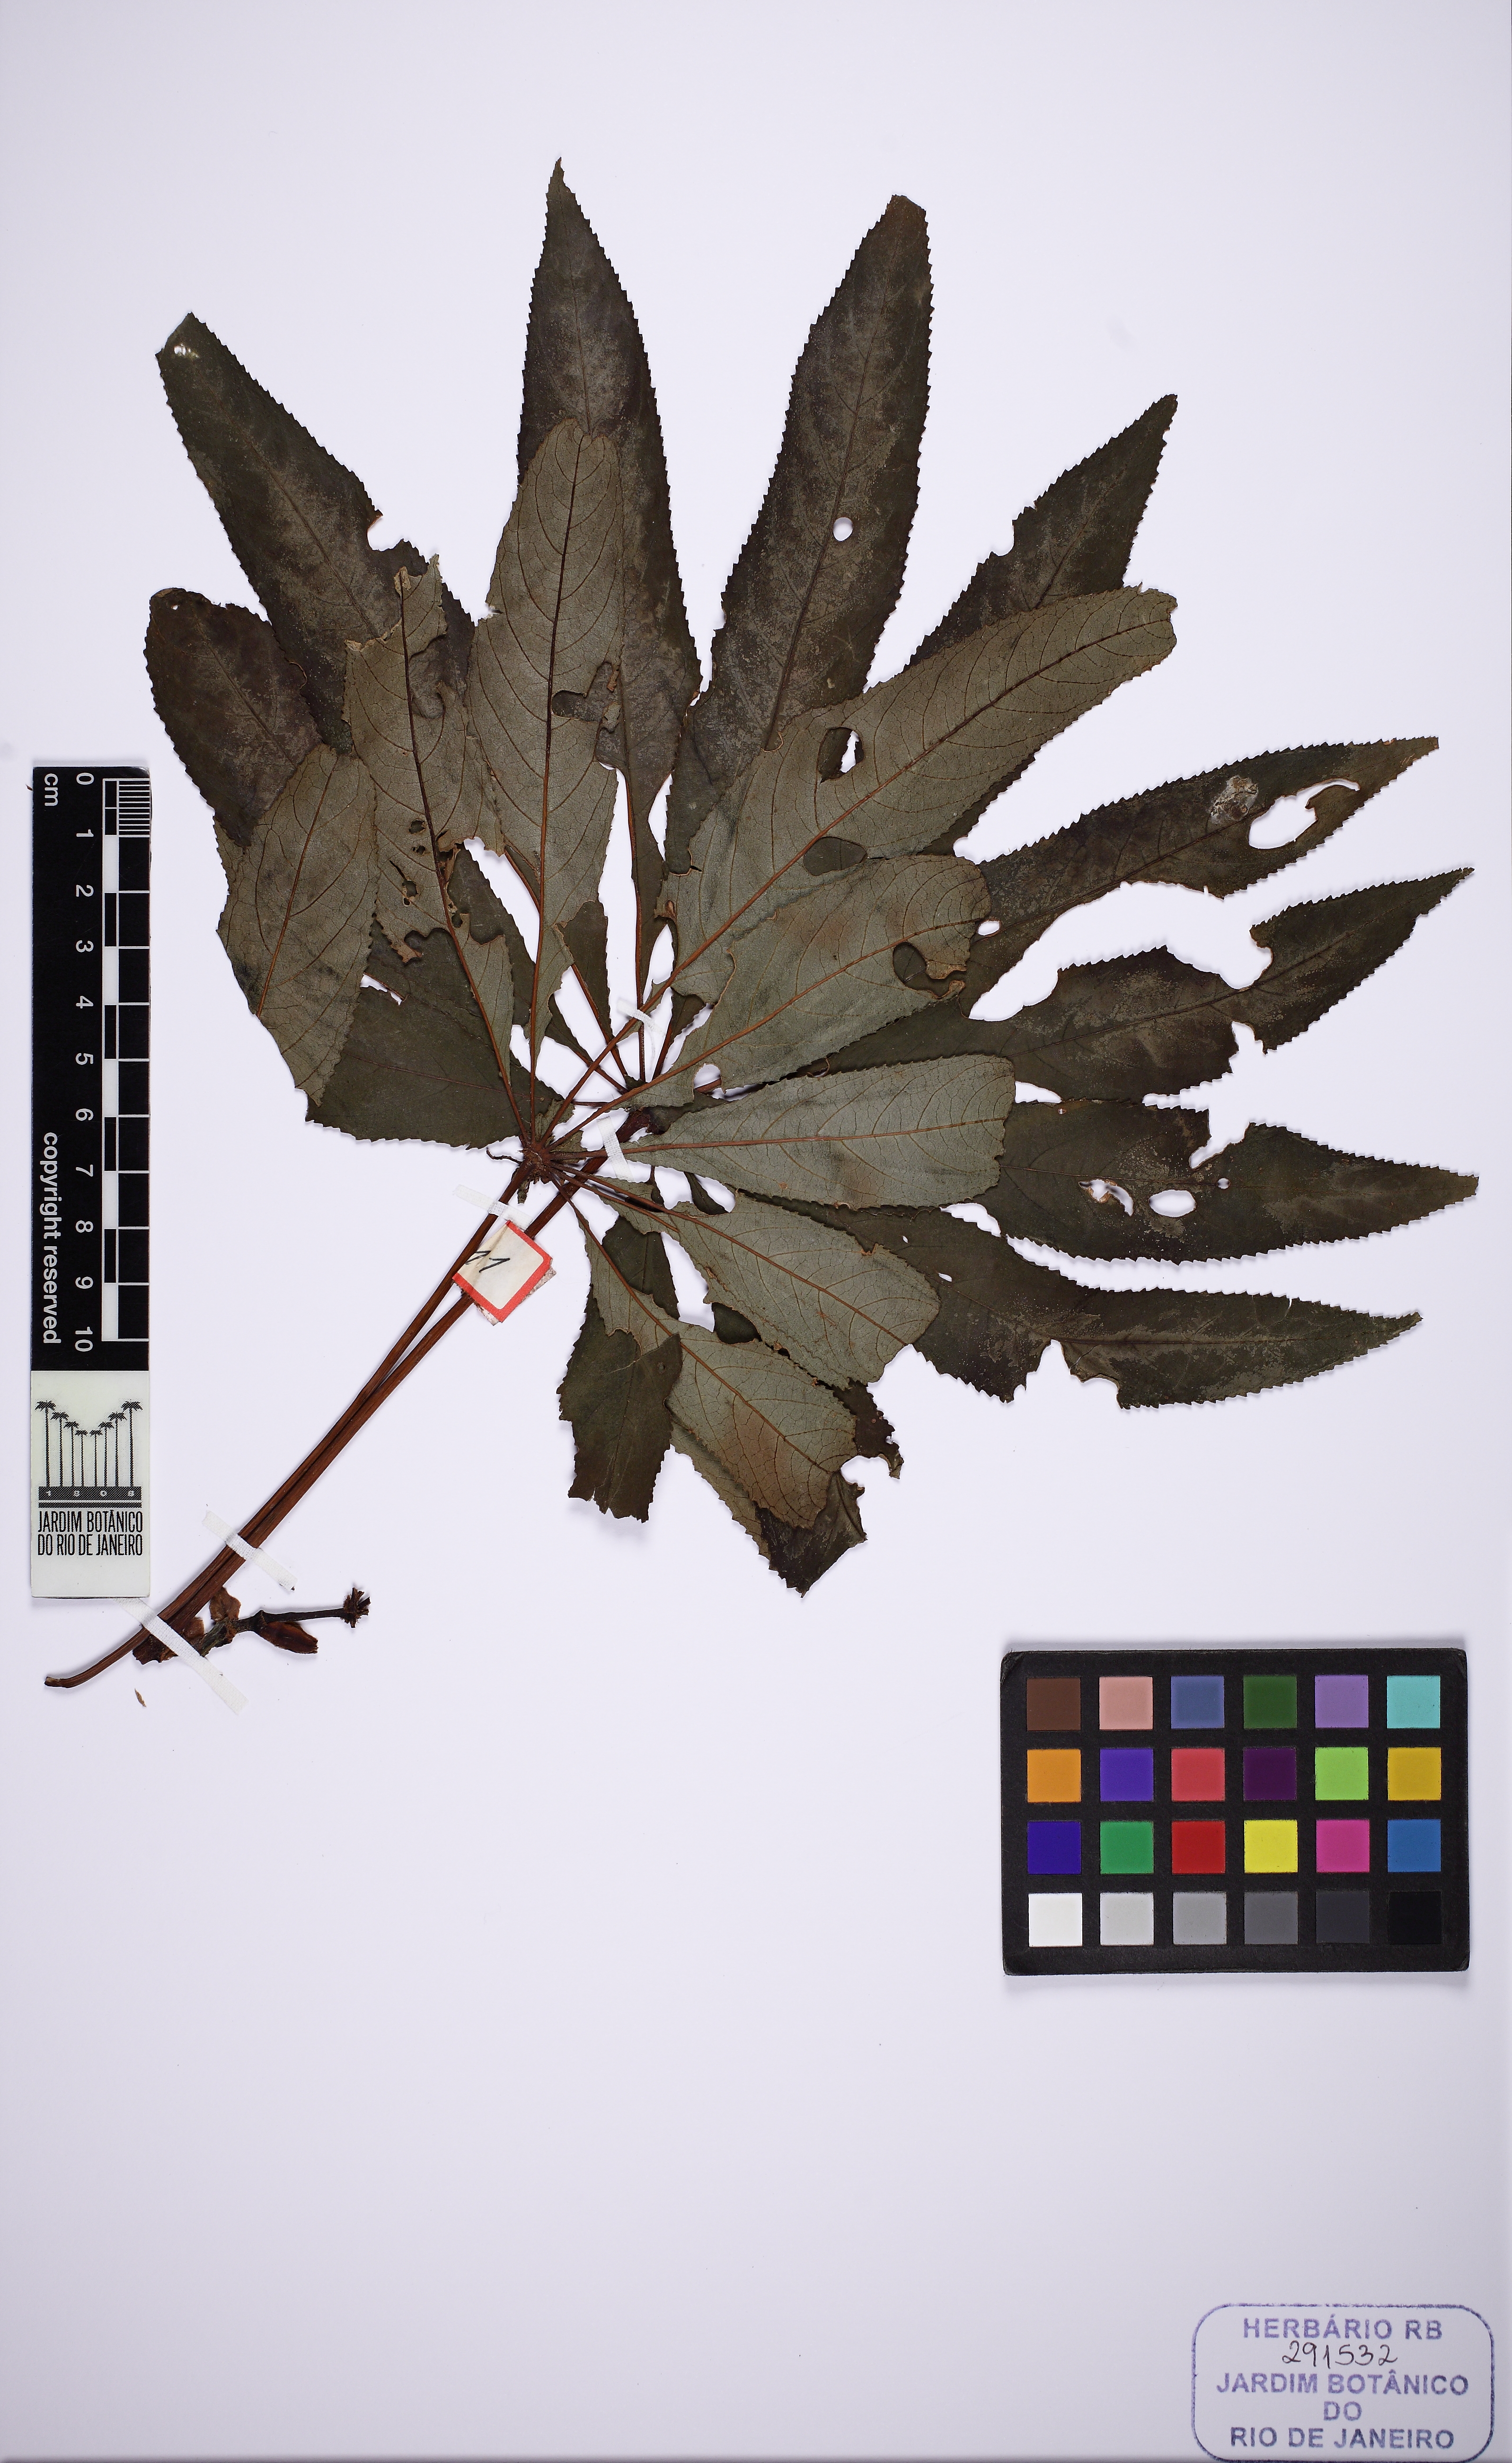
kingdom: Plantae
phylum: Tracheophyta
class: Magnoliopsida
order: Cucurbitales
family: Begoniaceae
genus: Begonia
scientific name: Begonia luxurians
